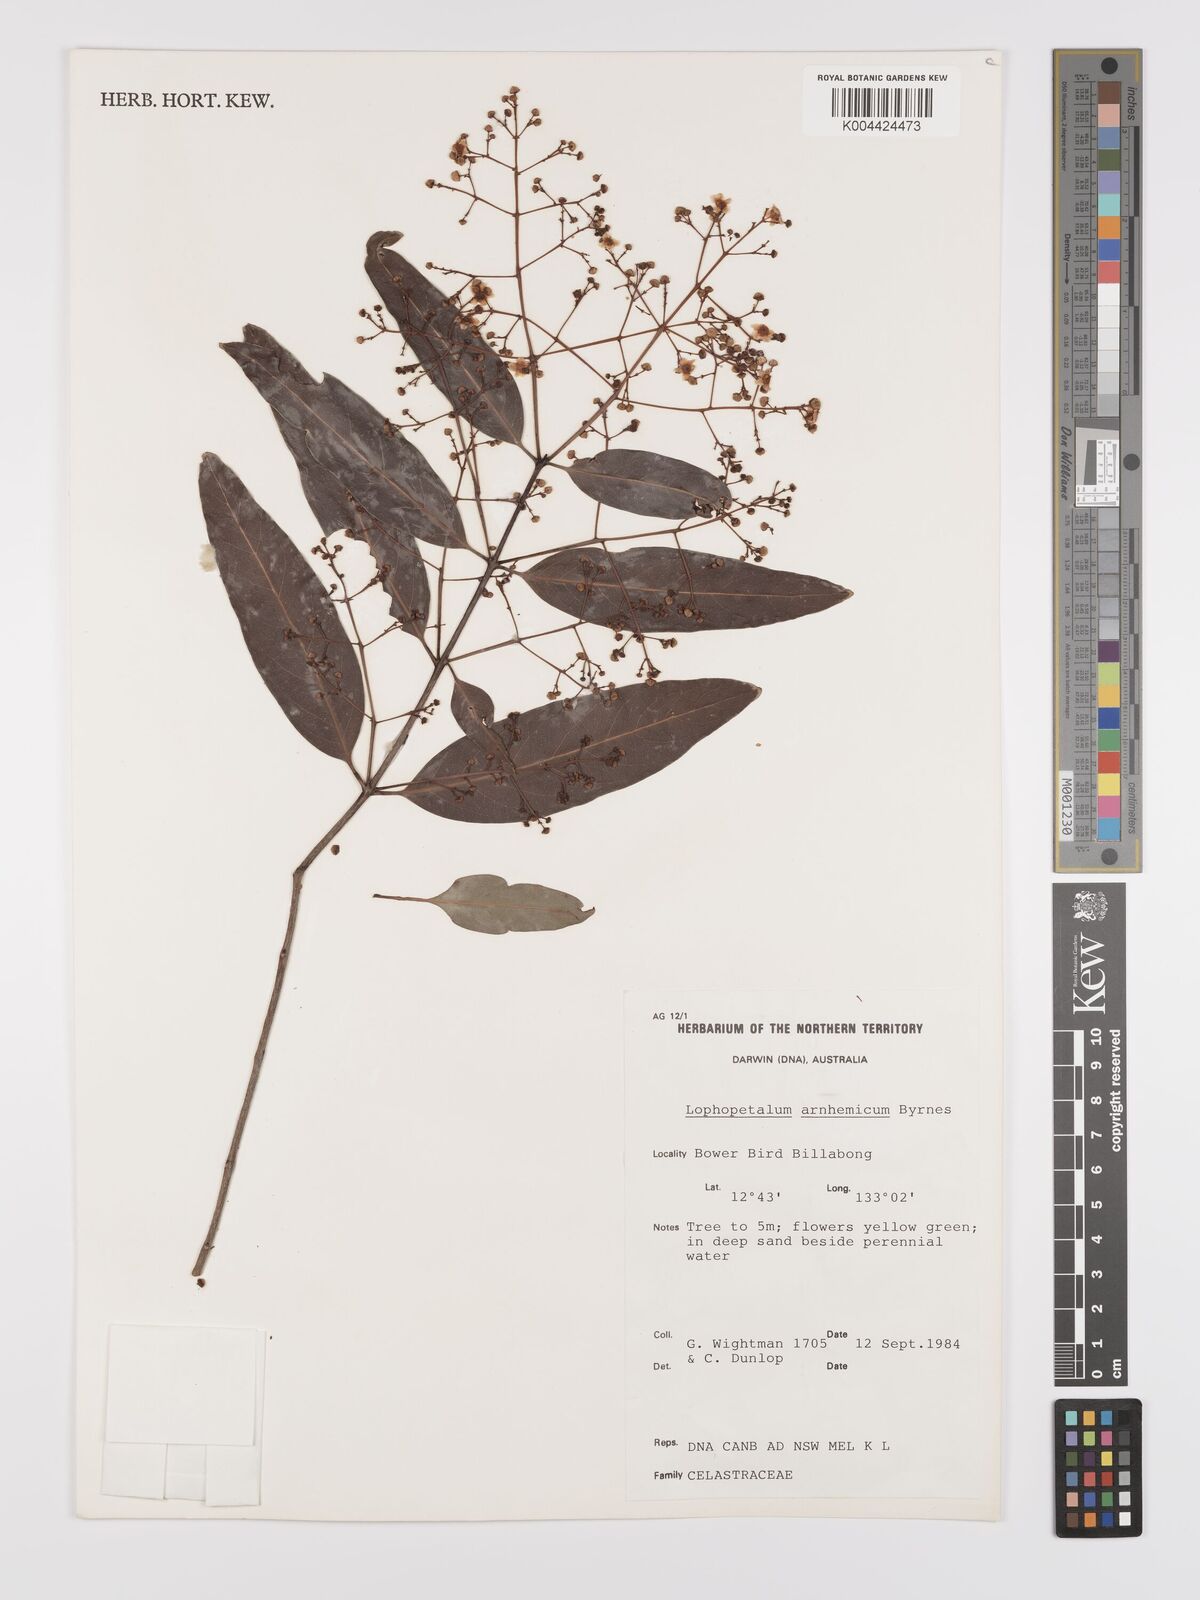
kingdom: Plantae
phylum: Tracheophyta
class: Magnoliopsida
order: Celastrales
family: Celastraceae
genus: Lophopetalum
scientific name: Lophopetalum arnhemicum
